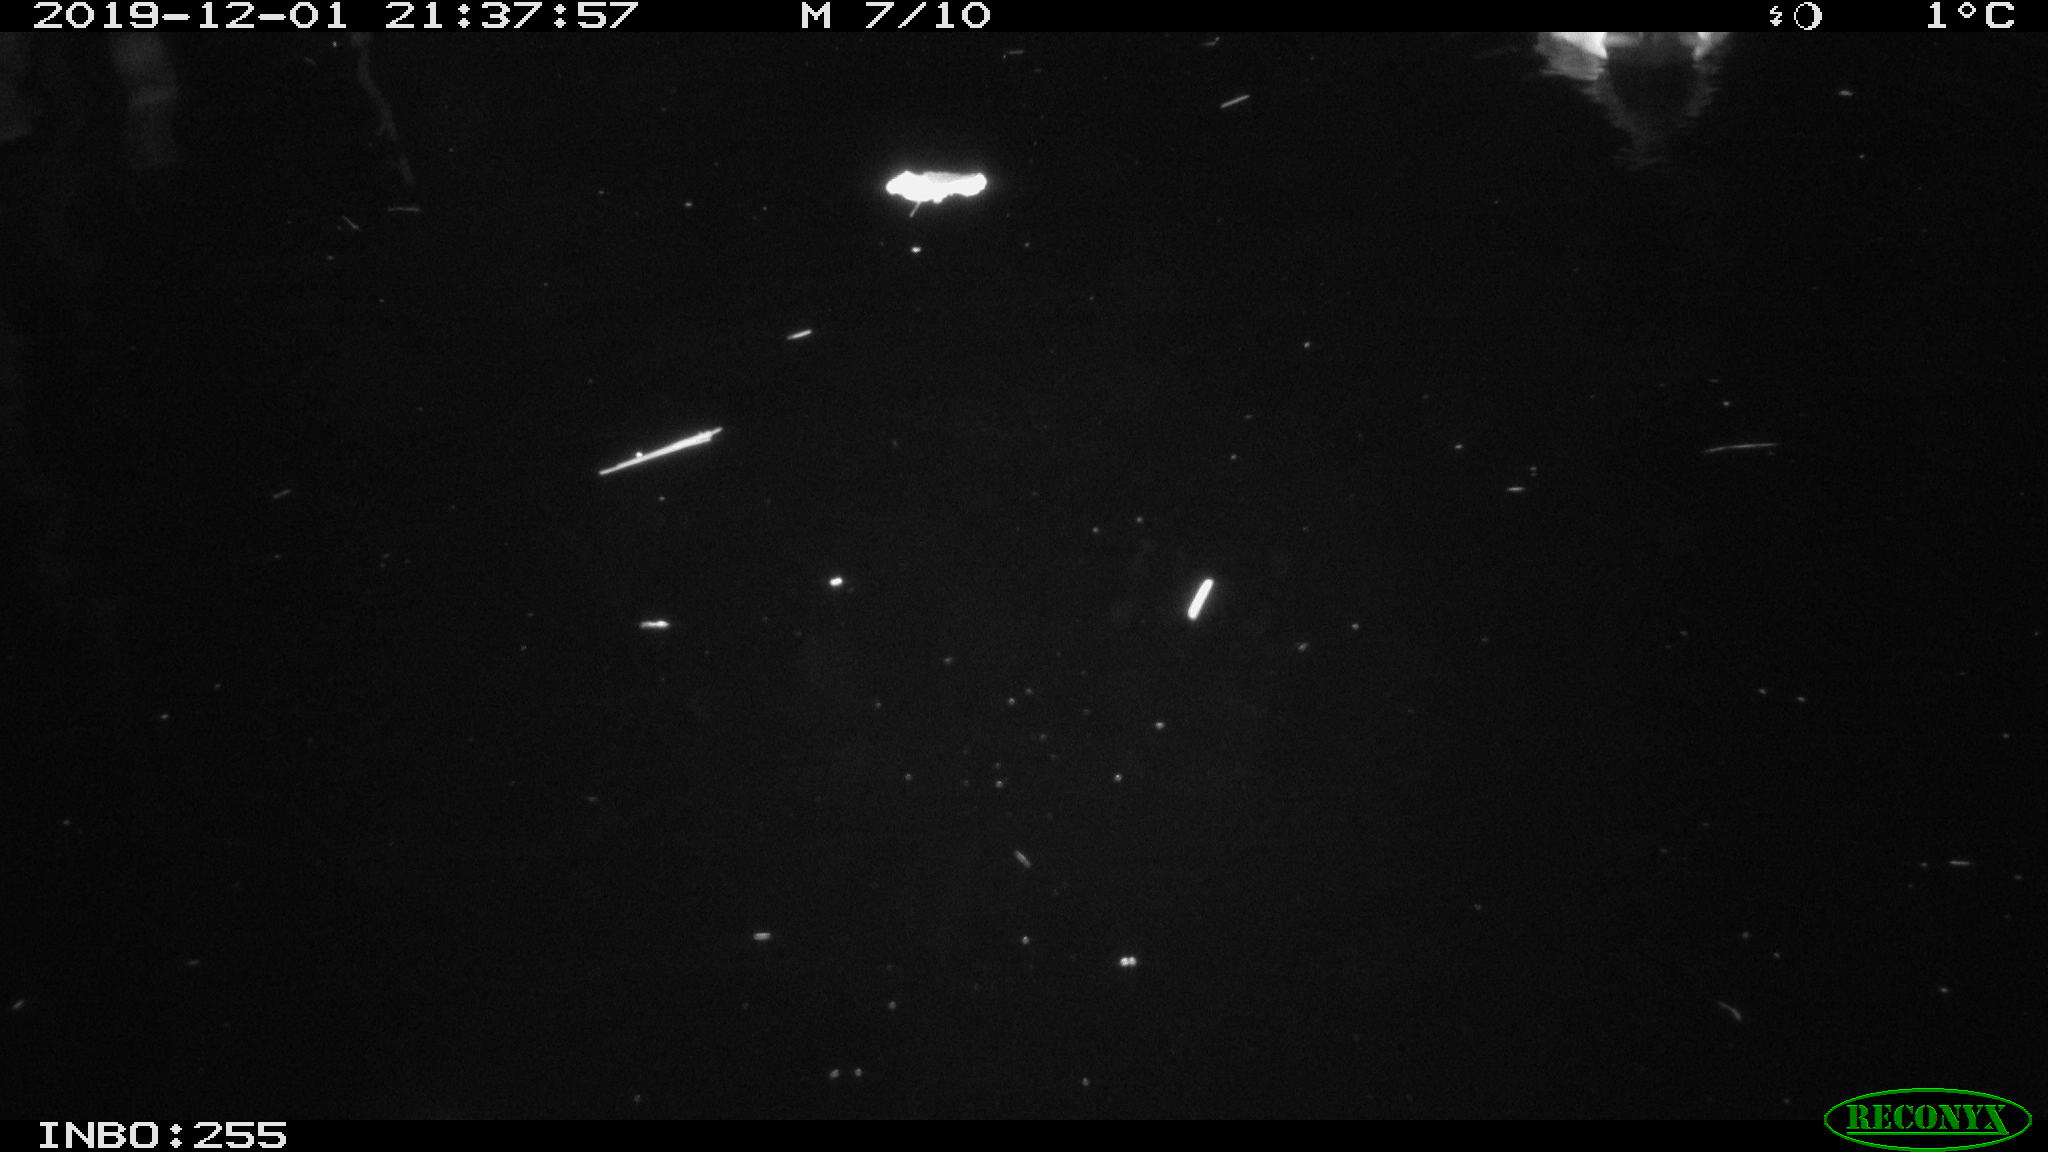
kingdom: Animalia
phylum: Chordata
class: Aves
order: Anseriformes
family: Anatidae
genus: Anas
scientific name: Anas platyrhynchos
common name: Mallard
